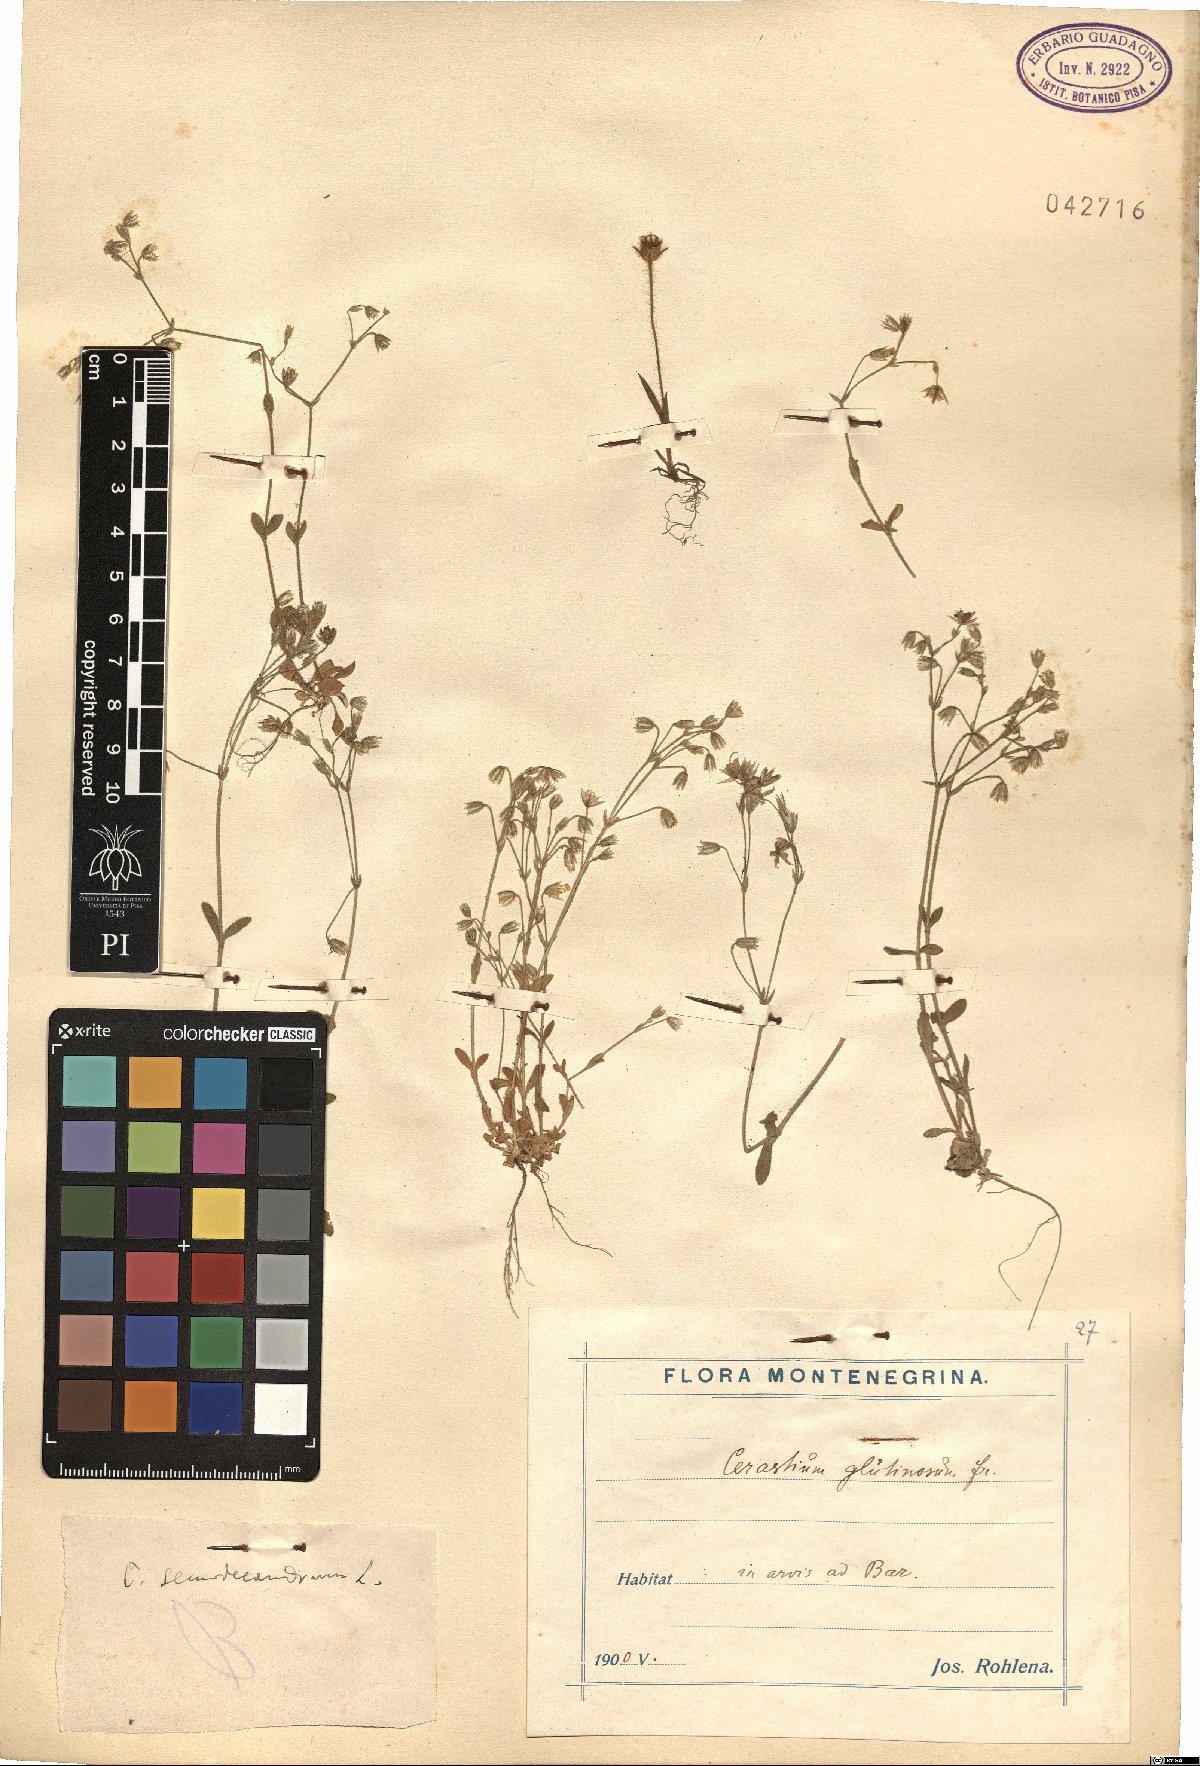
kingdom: Plantae
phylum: Tracheophyta
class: Magnoliopsida
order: Caryophyllales
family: Caryophyllaceae
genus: Cerastium
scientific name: Cerastium semidecandrum
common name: Little mouse-ear
